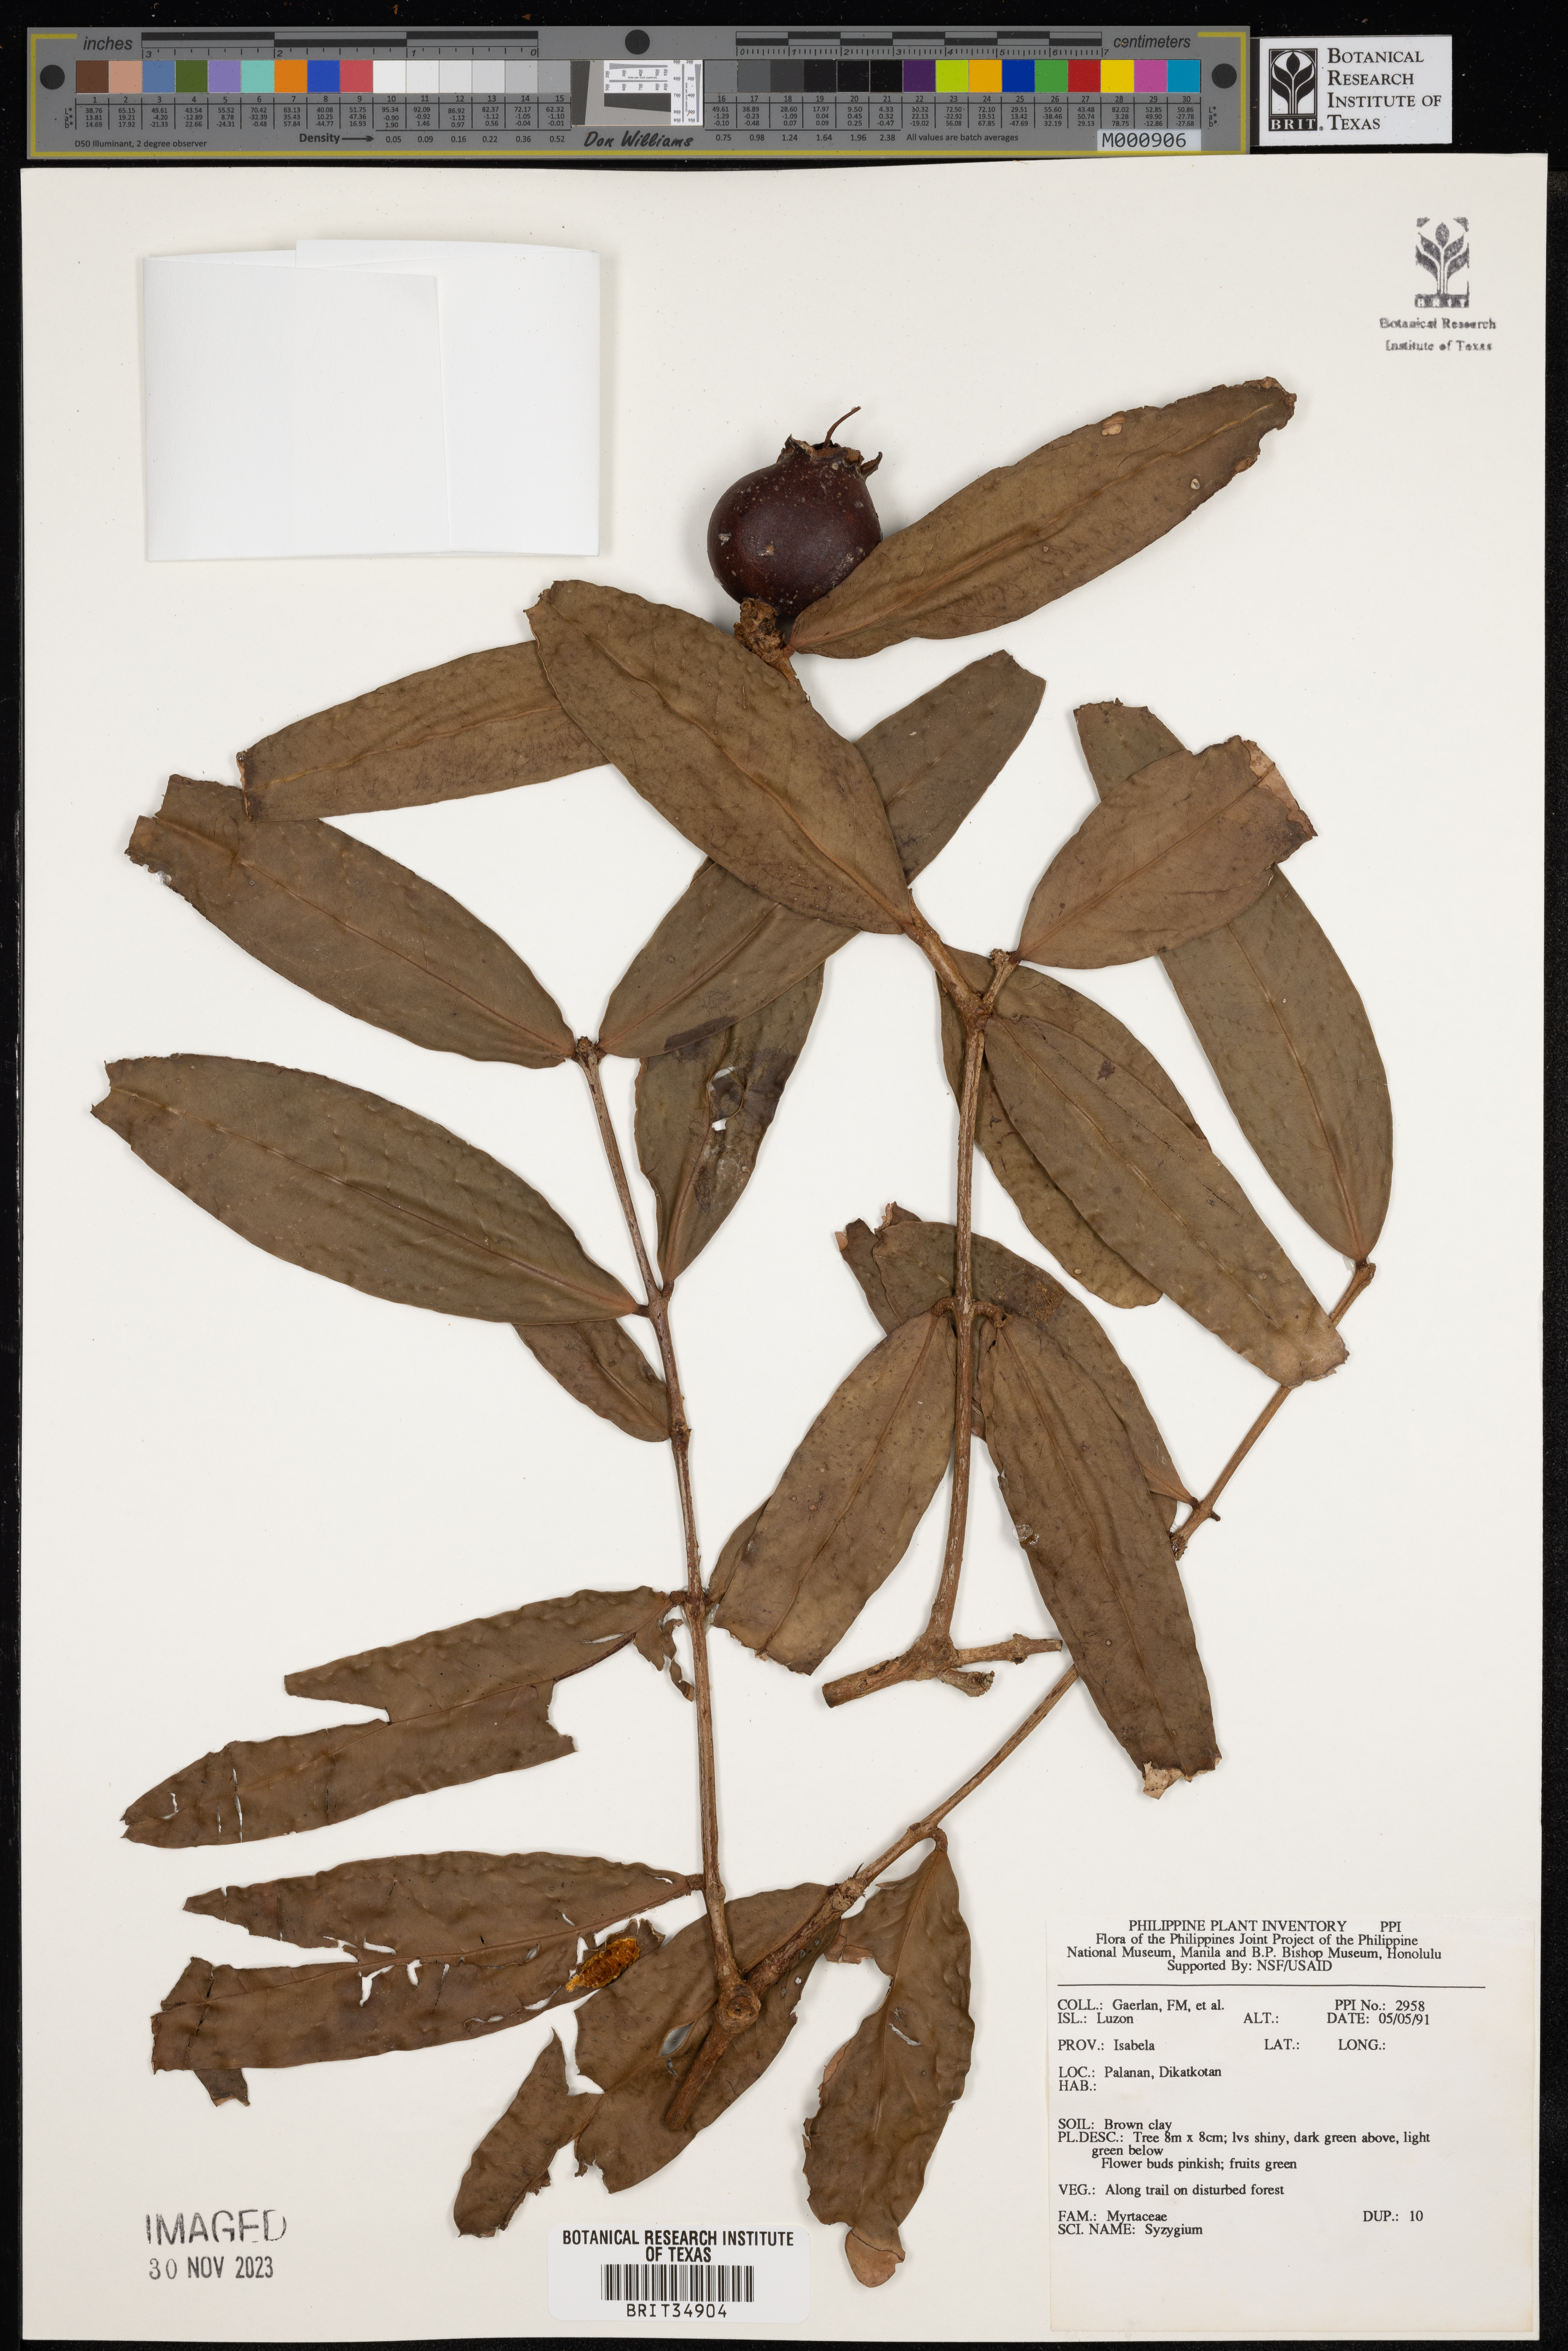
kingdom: Plantae
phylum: Tracheophyta
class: Magnoliopsida
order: Myrtales
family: Myrtaceae
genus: Syzygium
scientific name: Syzygium
